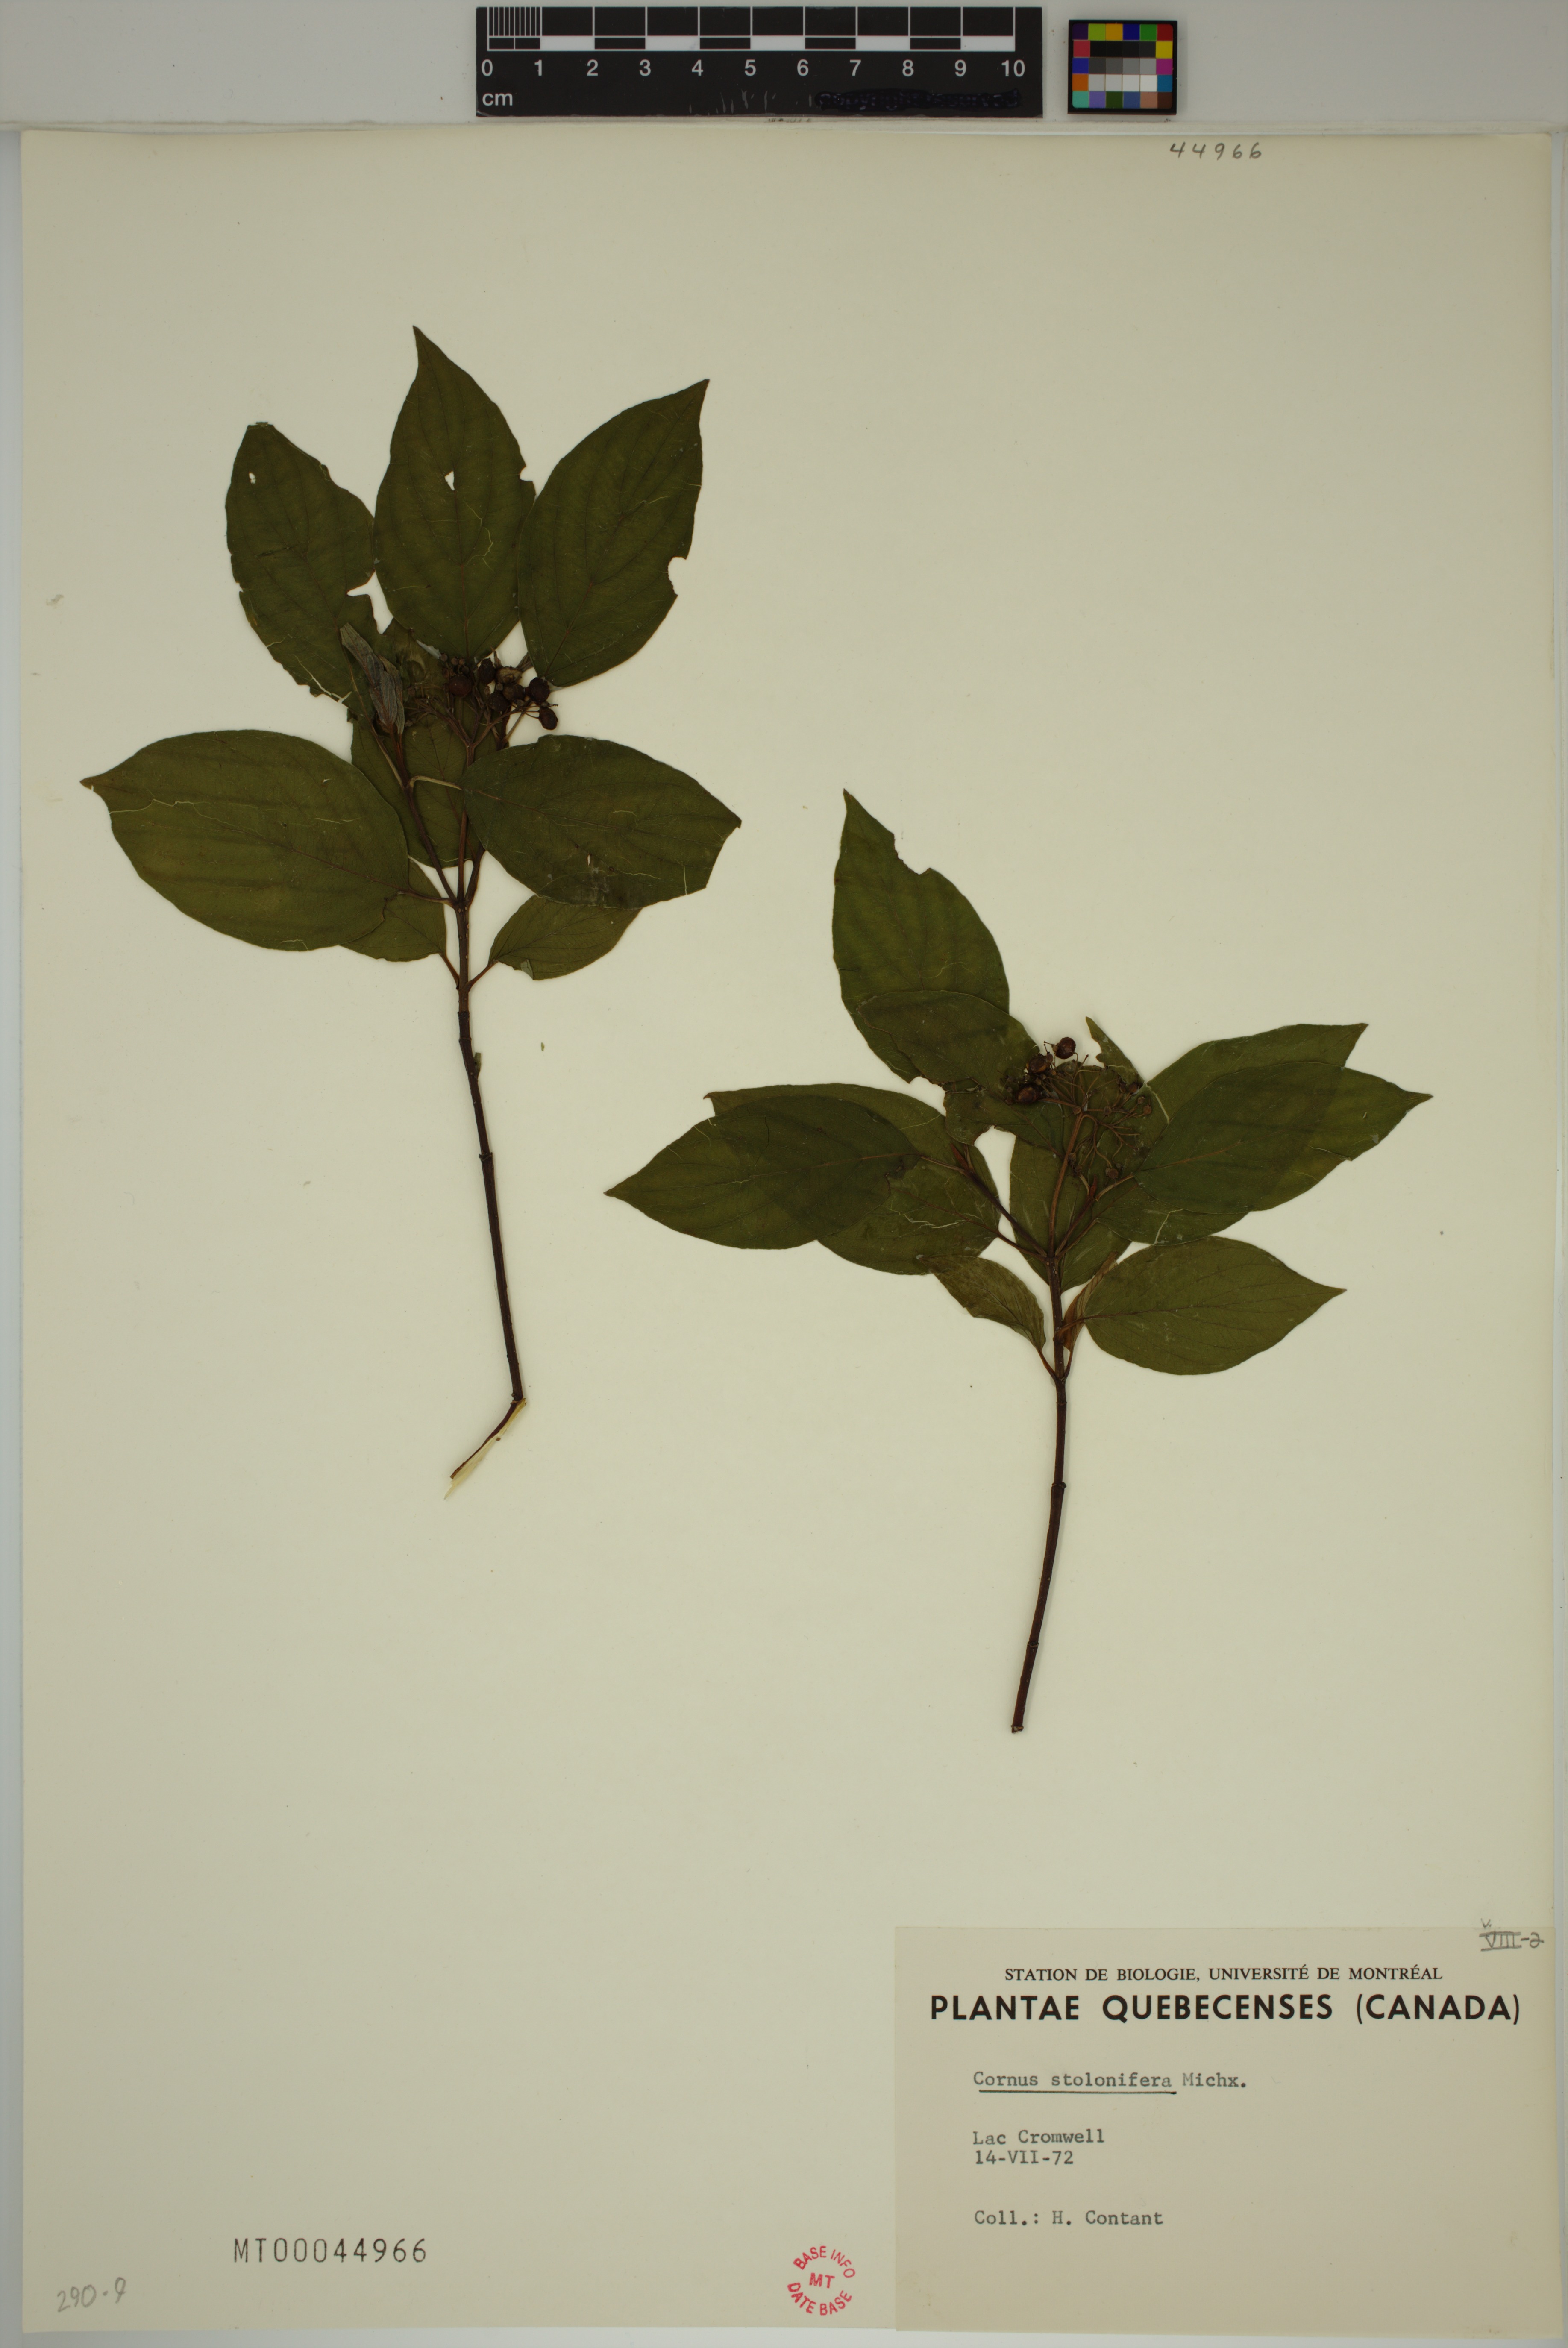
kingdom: Plantae
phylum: Tracheophyta
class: Magnoliopsida
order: Cornales
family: Cornaceae
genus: Cornus
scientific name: Cornus sericea
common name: Red-osier dogwood
